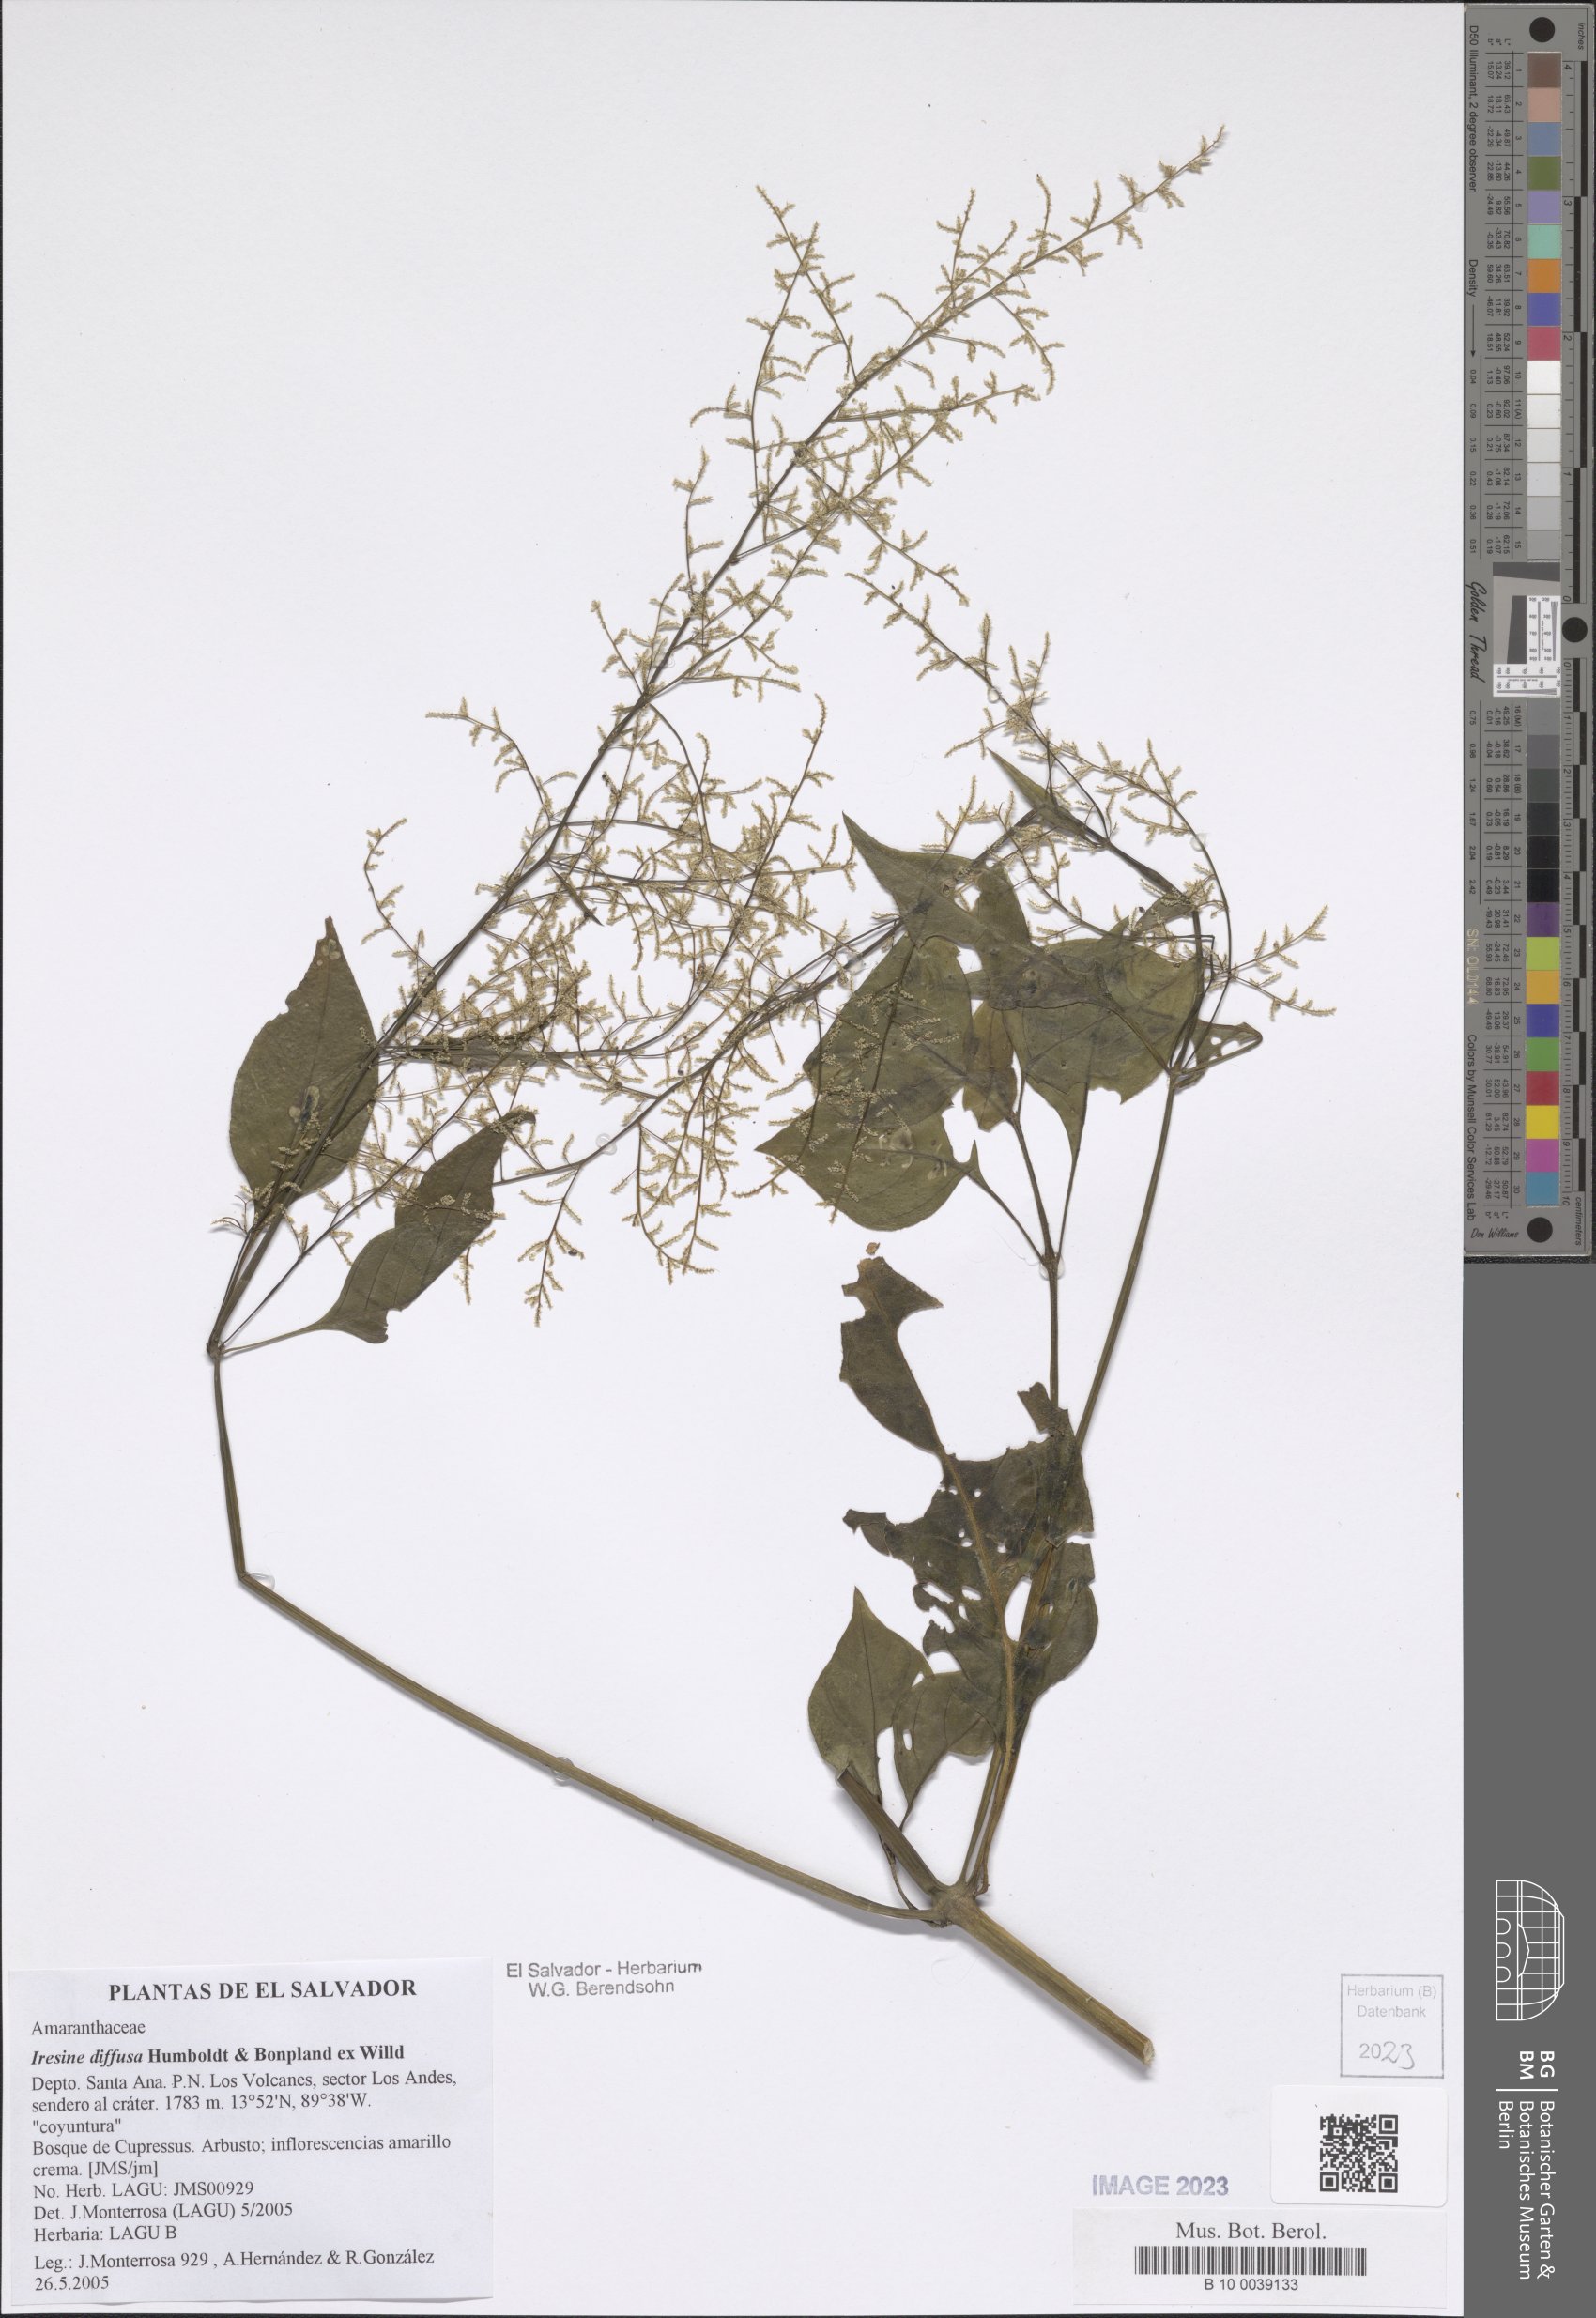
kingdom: Plantae
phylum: Tracheophyta
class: Magnoliopsida
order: Caryophyllales
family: Amaranthaceae
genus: Iresine
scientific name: Iresine diffusa
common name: Juba's-bush
